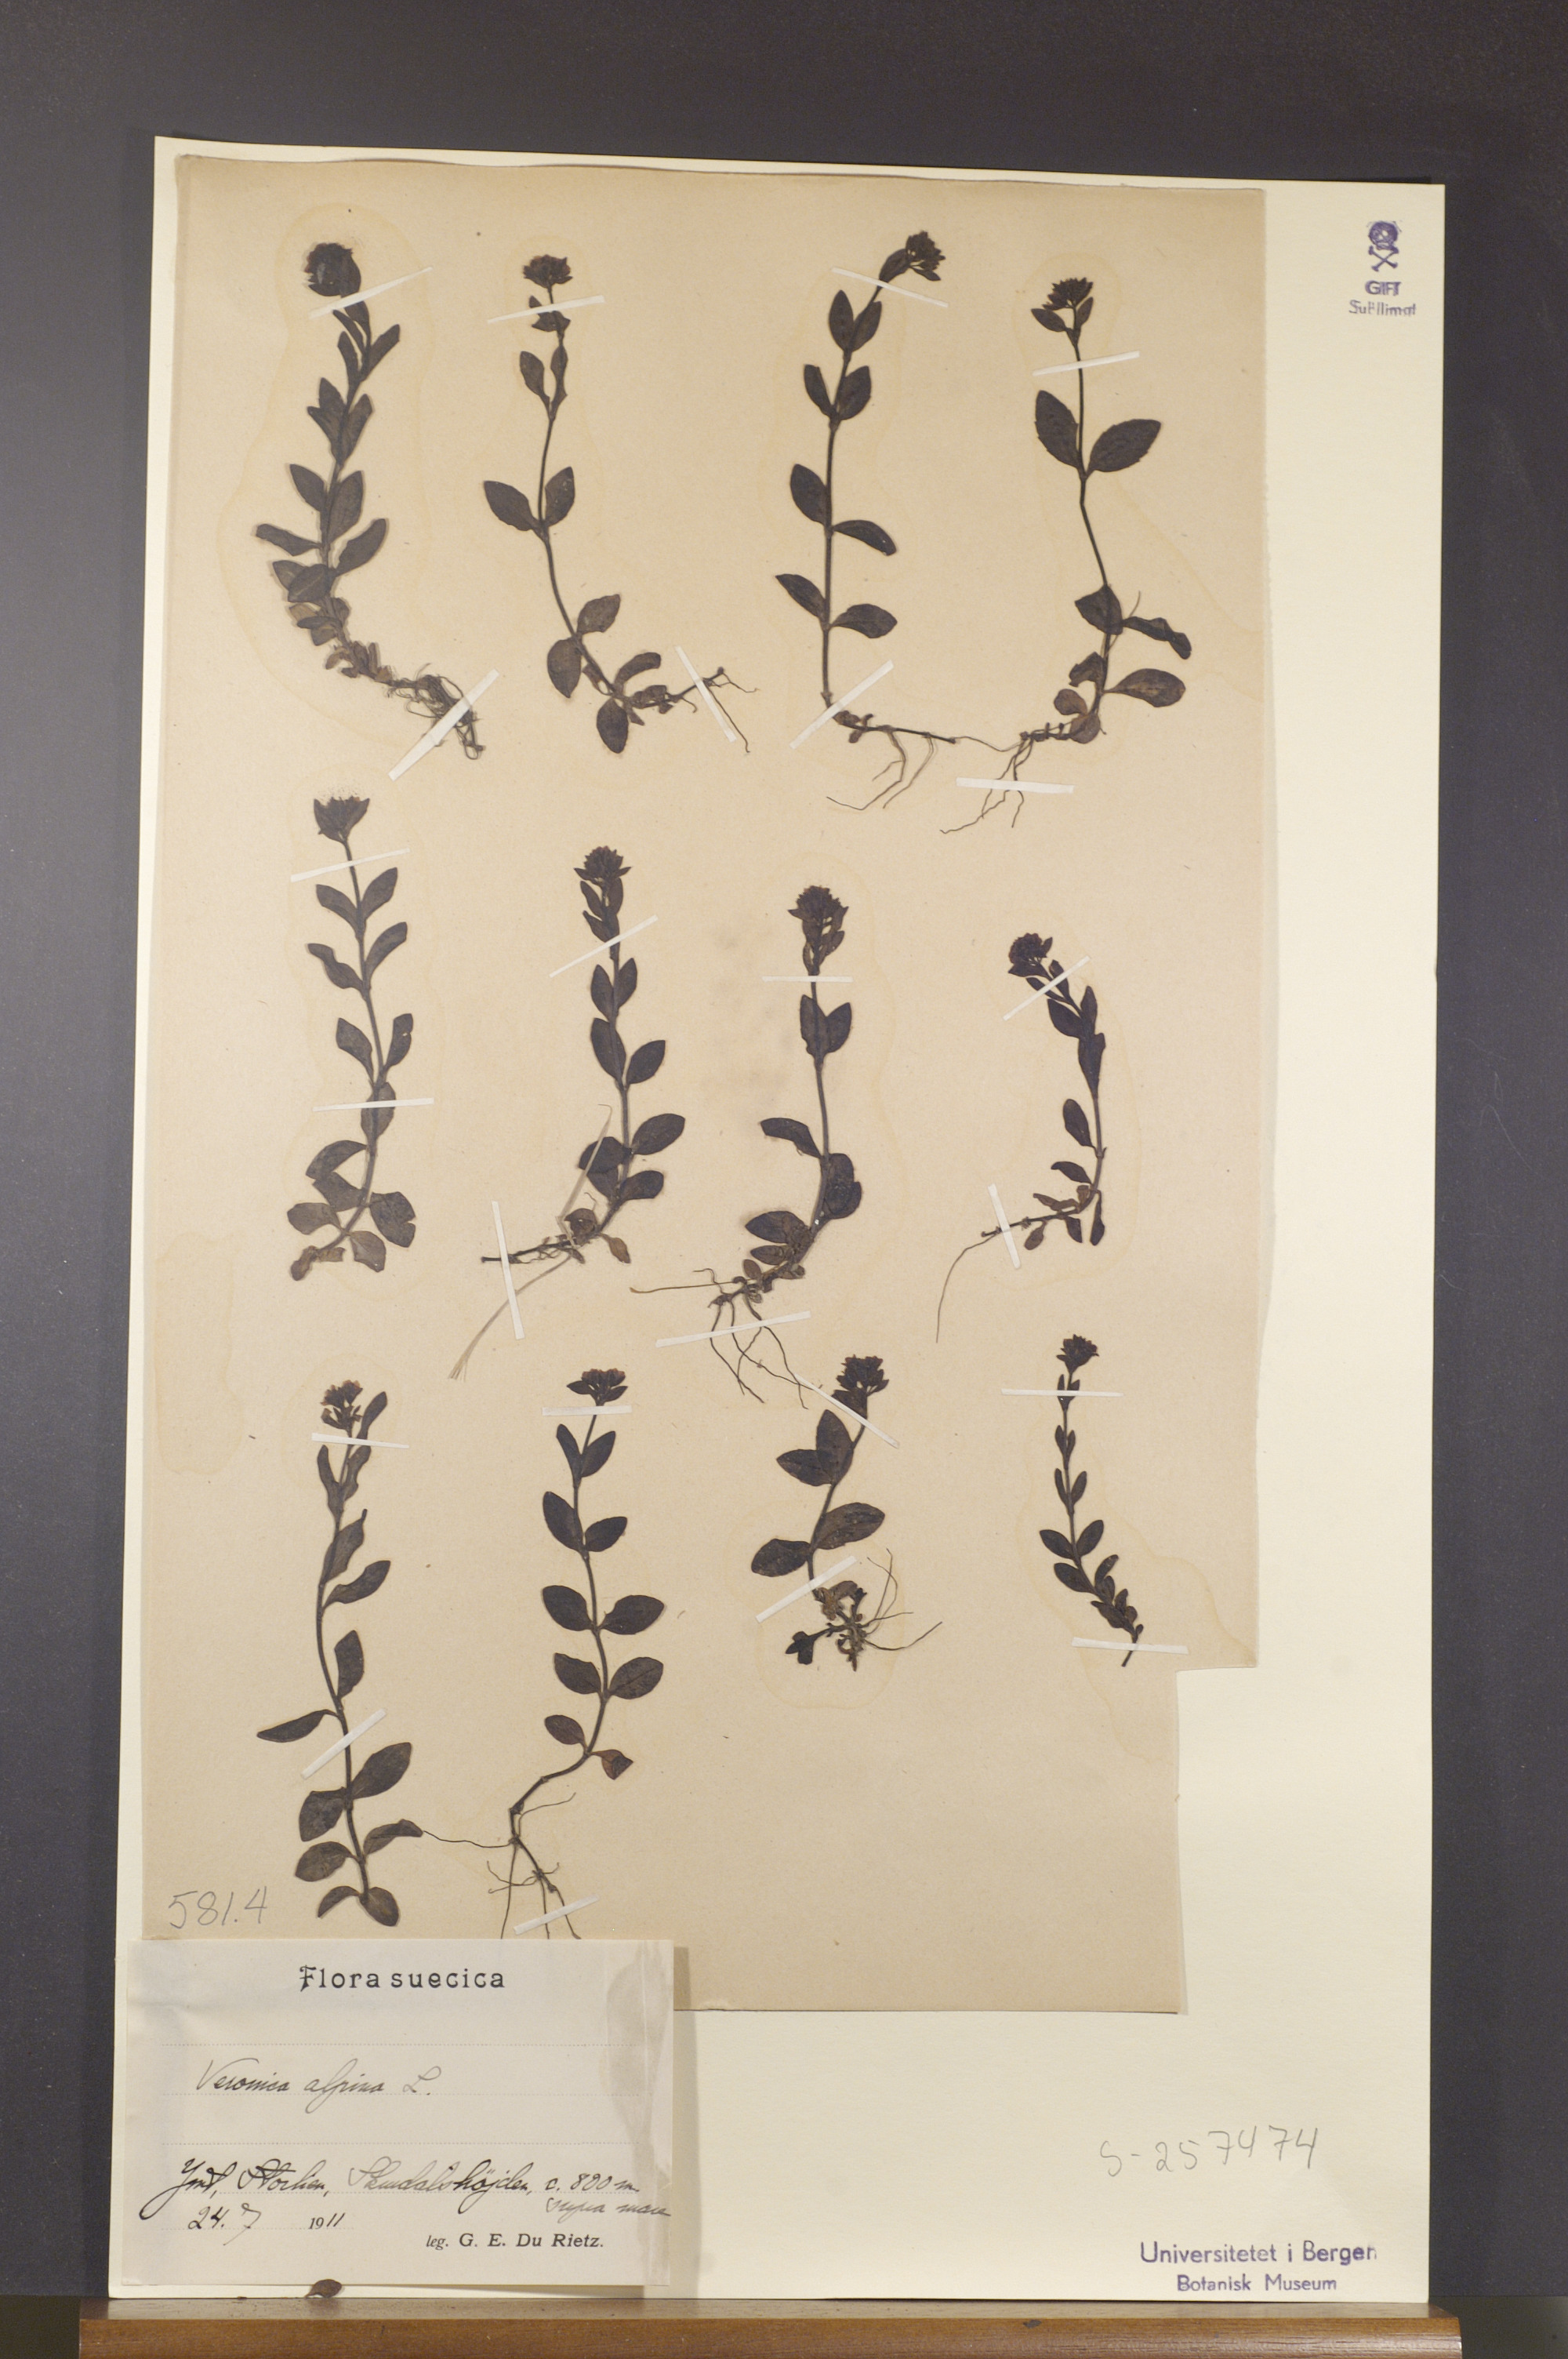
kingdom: Plantae
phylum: Tracheophyta
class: Magnoliopsida
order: Lamiales
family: Plantaginaceae
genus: Veronica
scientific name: Veronica alpina
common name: Alpine speedwell
